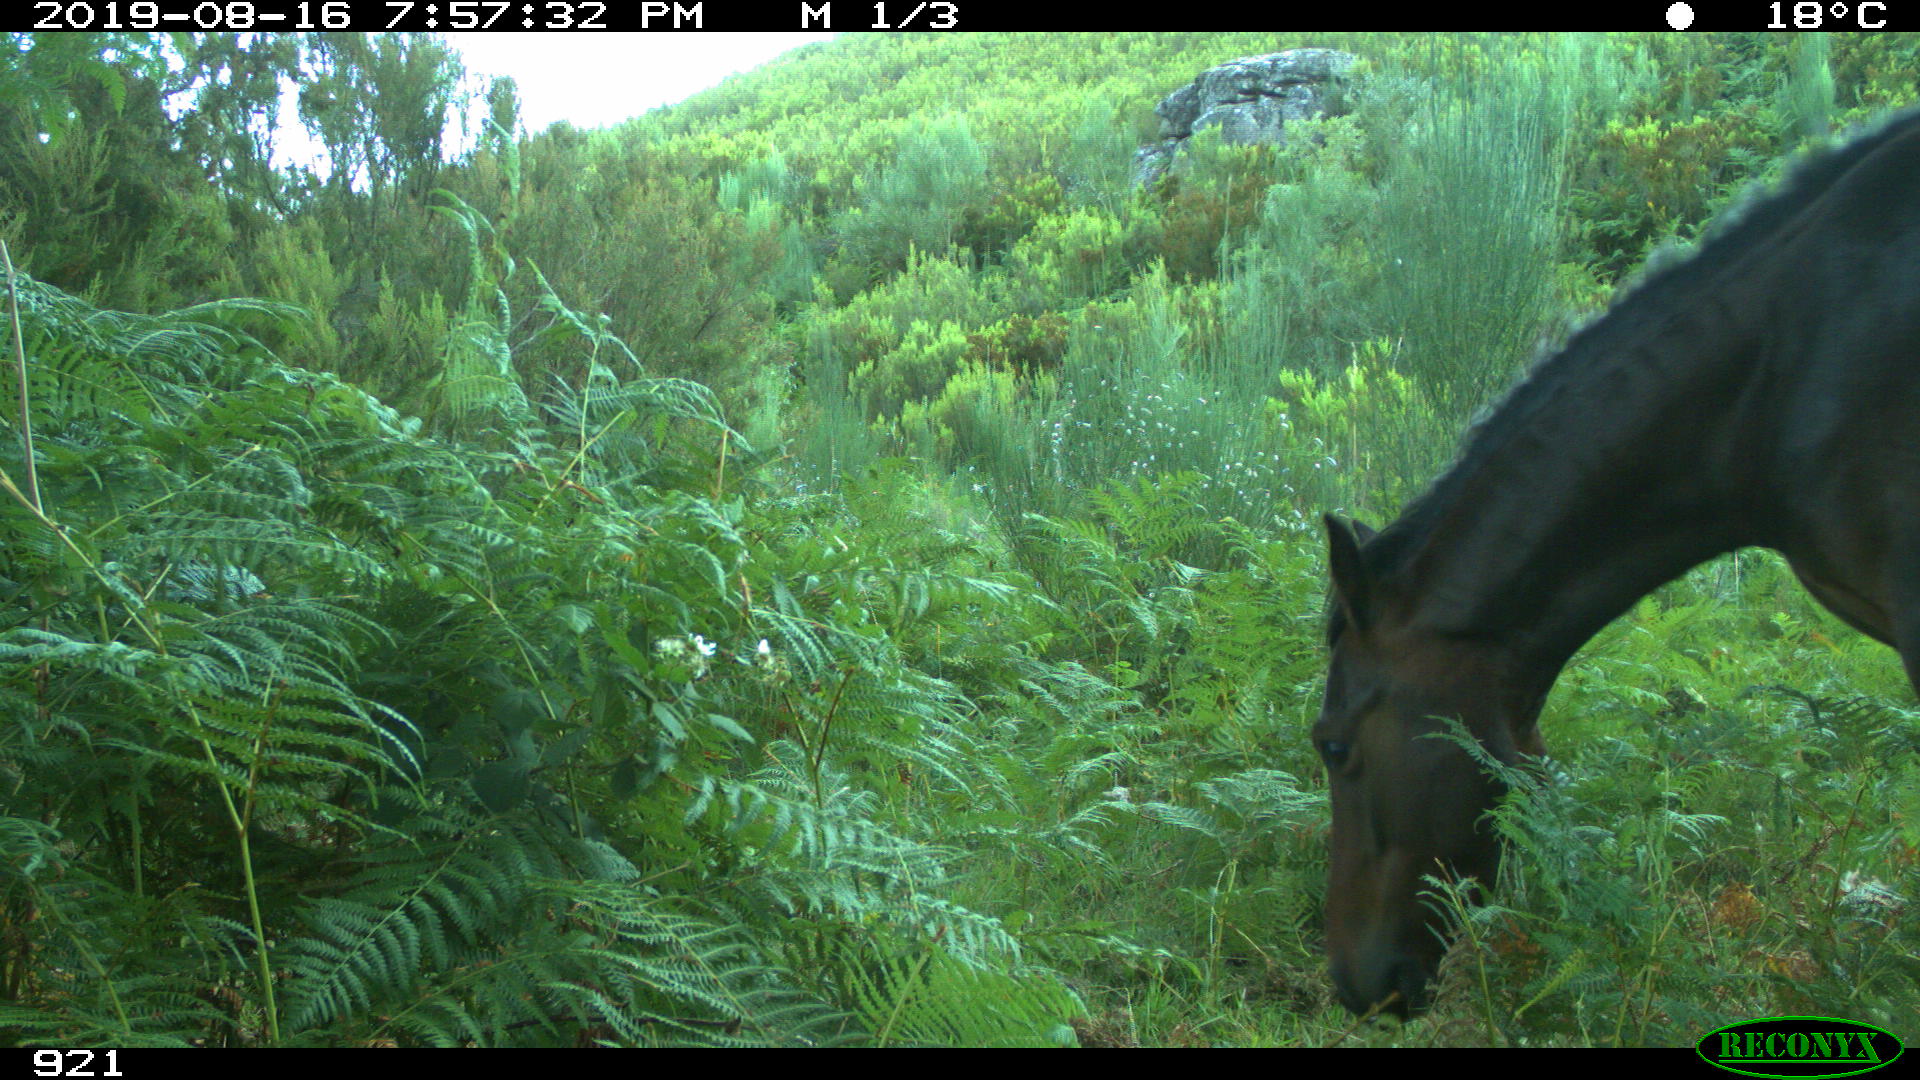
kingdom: Animalia
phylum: Chordata
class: Mammalia
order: Perissodactyla
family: Equidae
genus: Equus
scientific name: Equus caballus
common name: Horse
